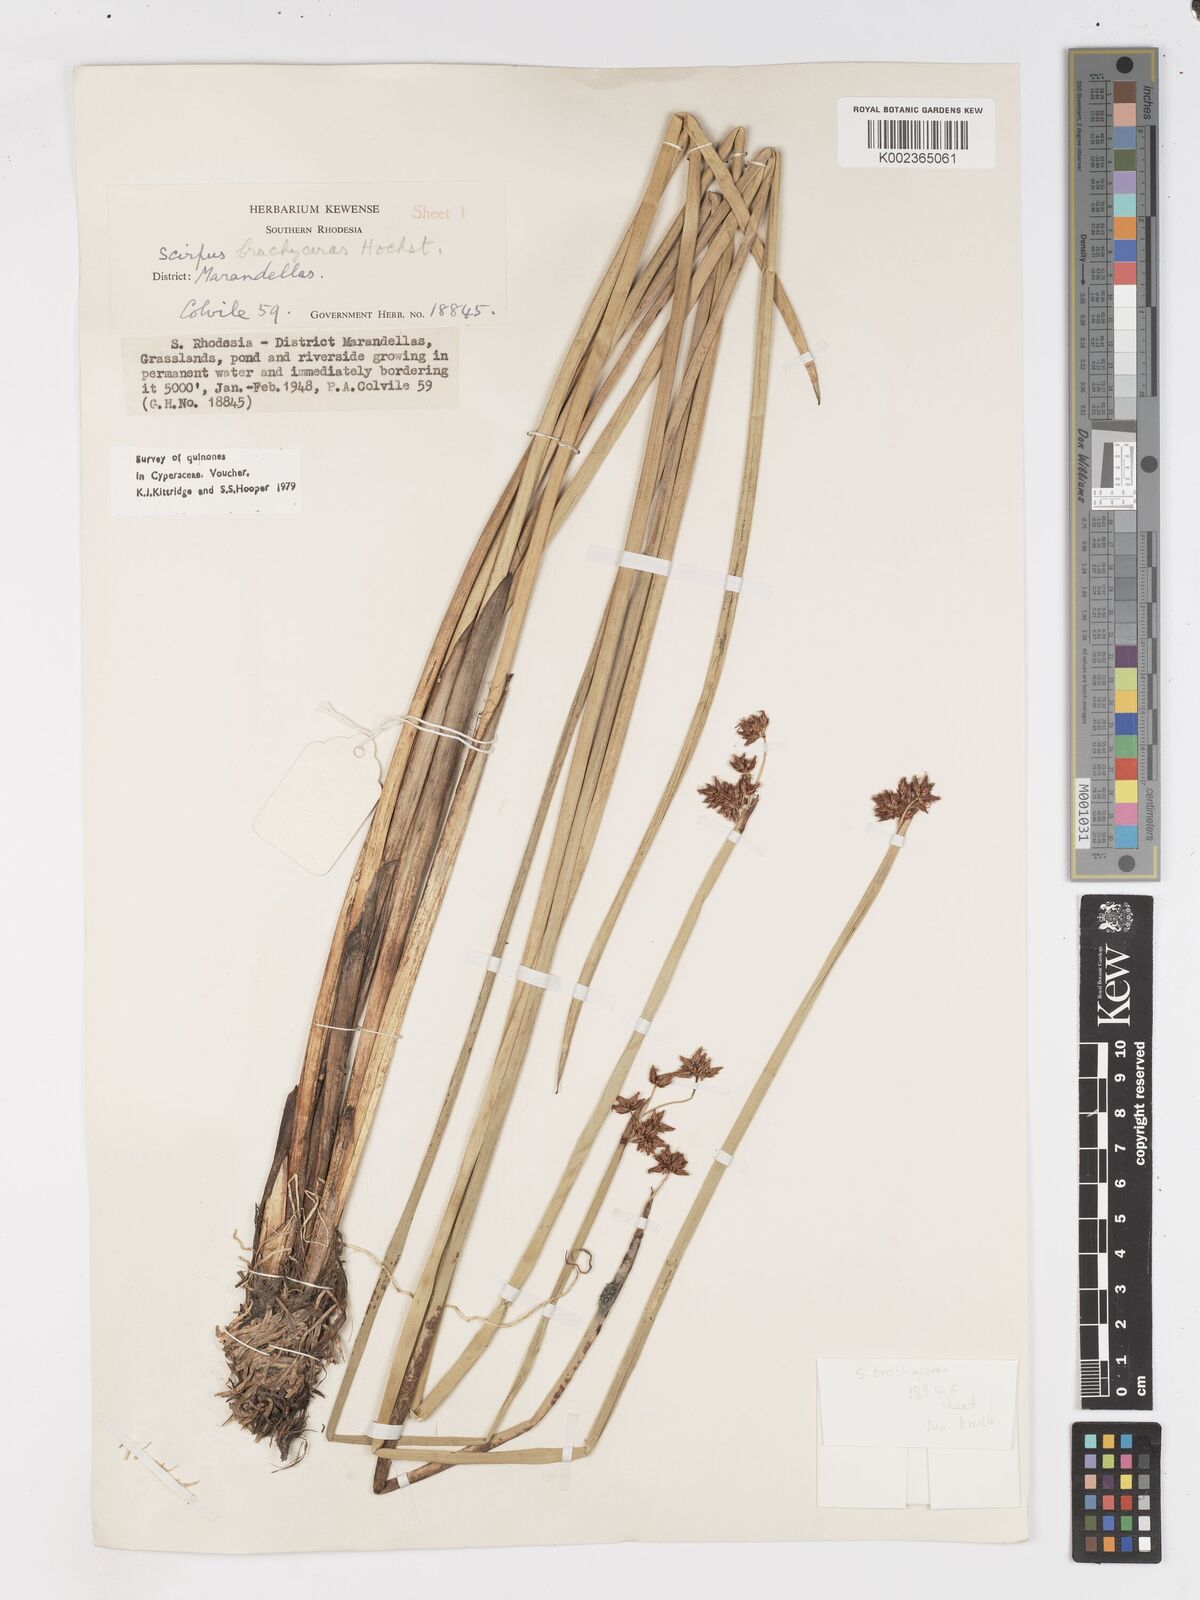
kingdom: Plantae
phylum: Tracheophyta
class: Liliopsida
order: Poales
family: Cyperaceae
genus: Schoenoplectiella
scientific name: Schoenoplectiella brachyceras
